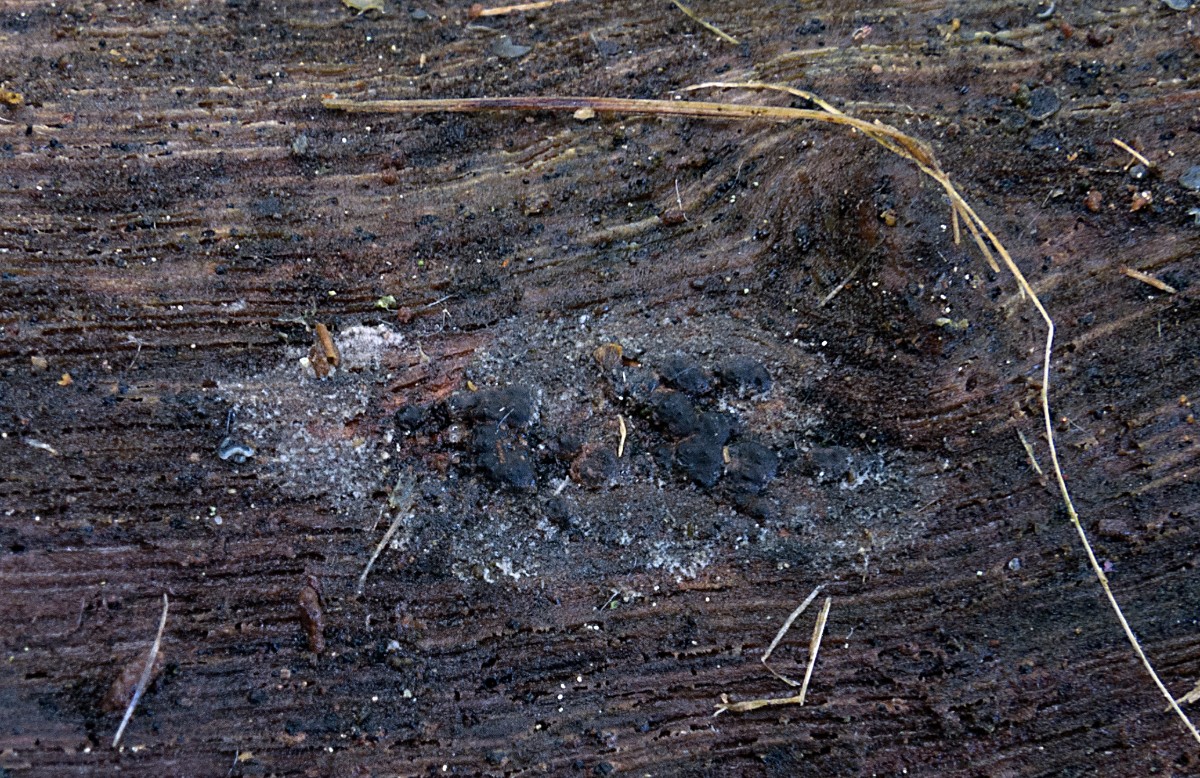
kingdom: Fungi
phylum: Ascomycota
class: Sordariomycetes
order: Xylariales
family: Xylariaceae
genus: Nemania
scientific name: Nemania serpens
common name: almindelig kuldyne
